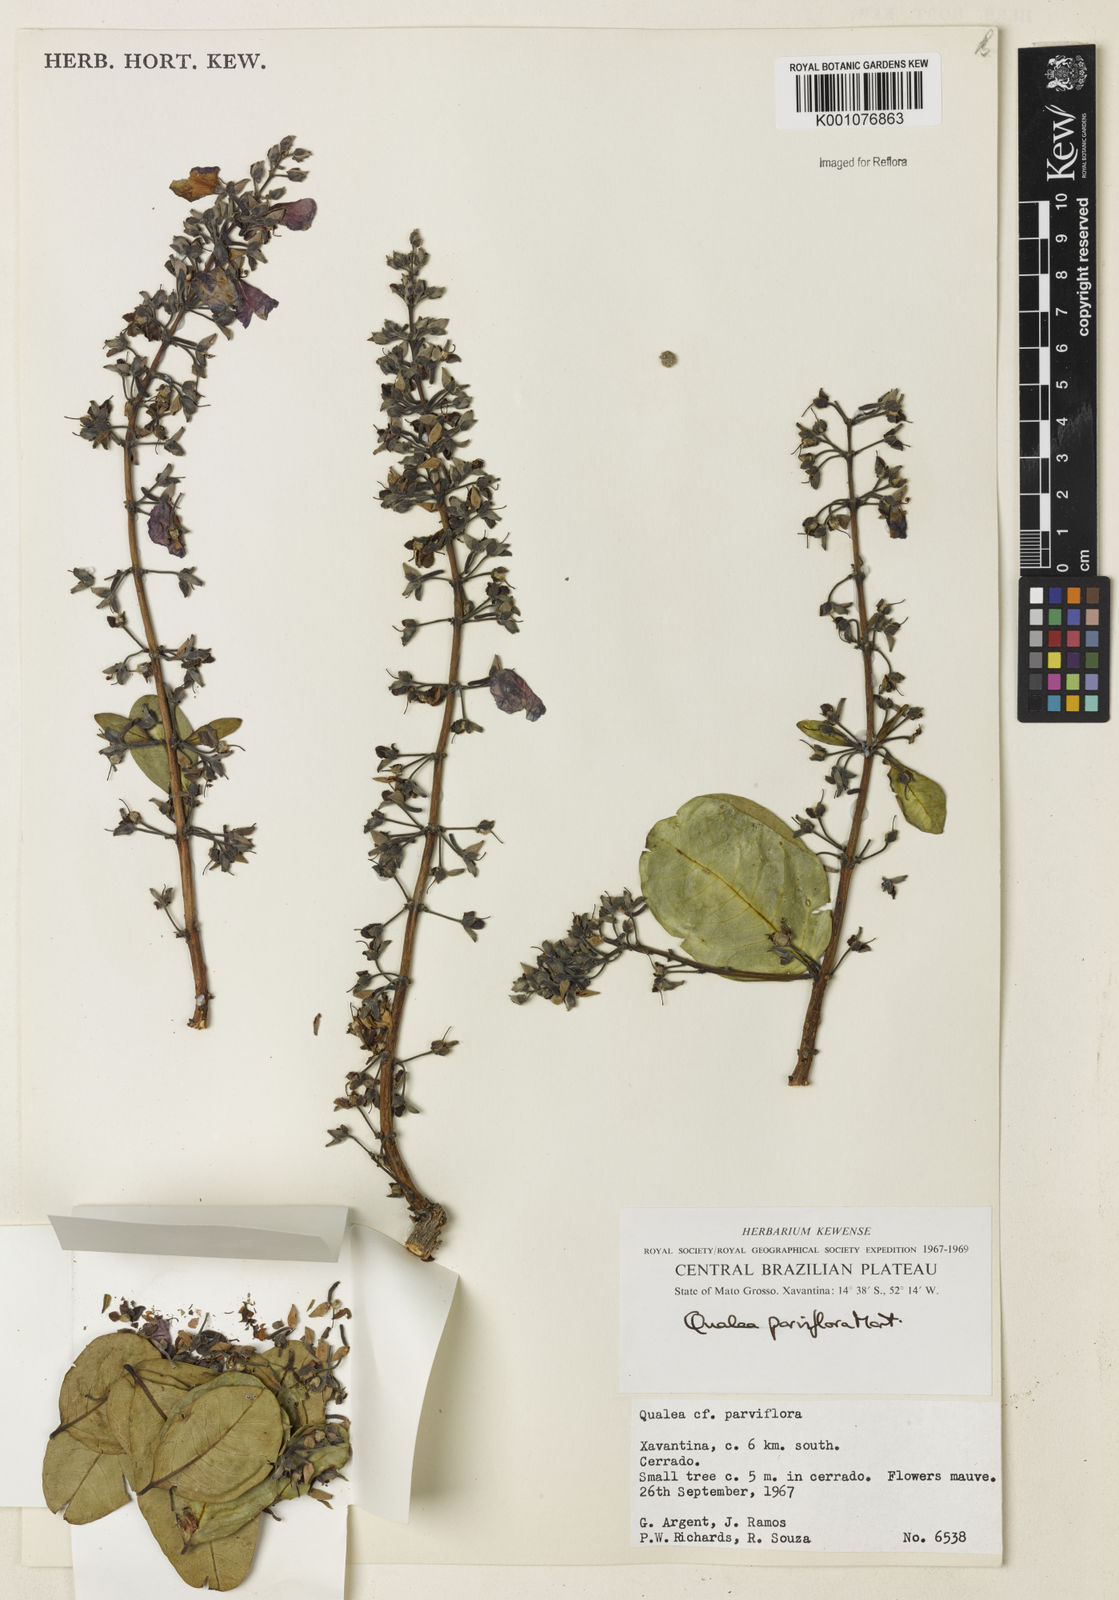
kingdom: Plantae
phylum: Tracheophyta
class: Magnoliopsida
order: Myrtales
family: Vochysiaceae
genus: Qualea
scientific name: Qualea parviflora
